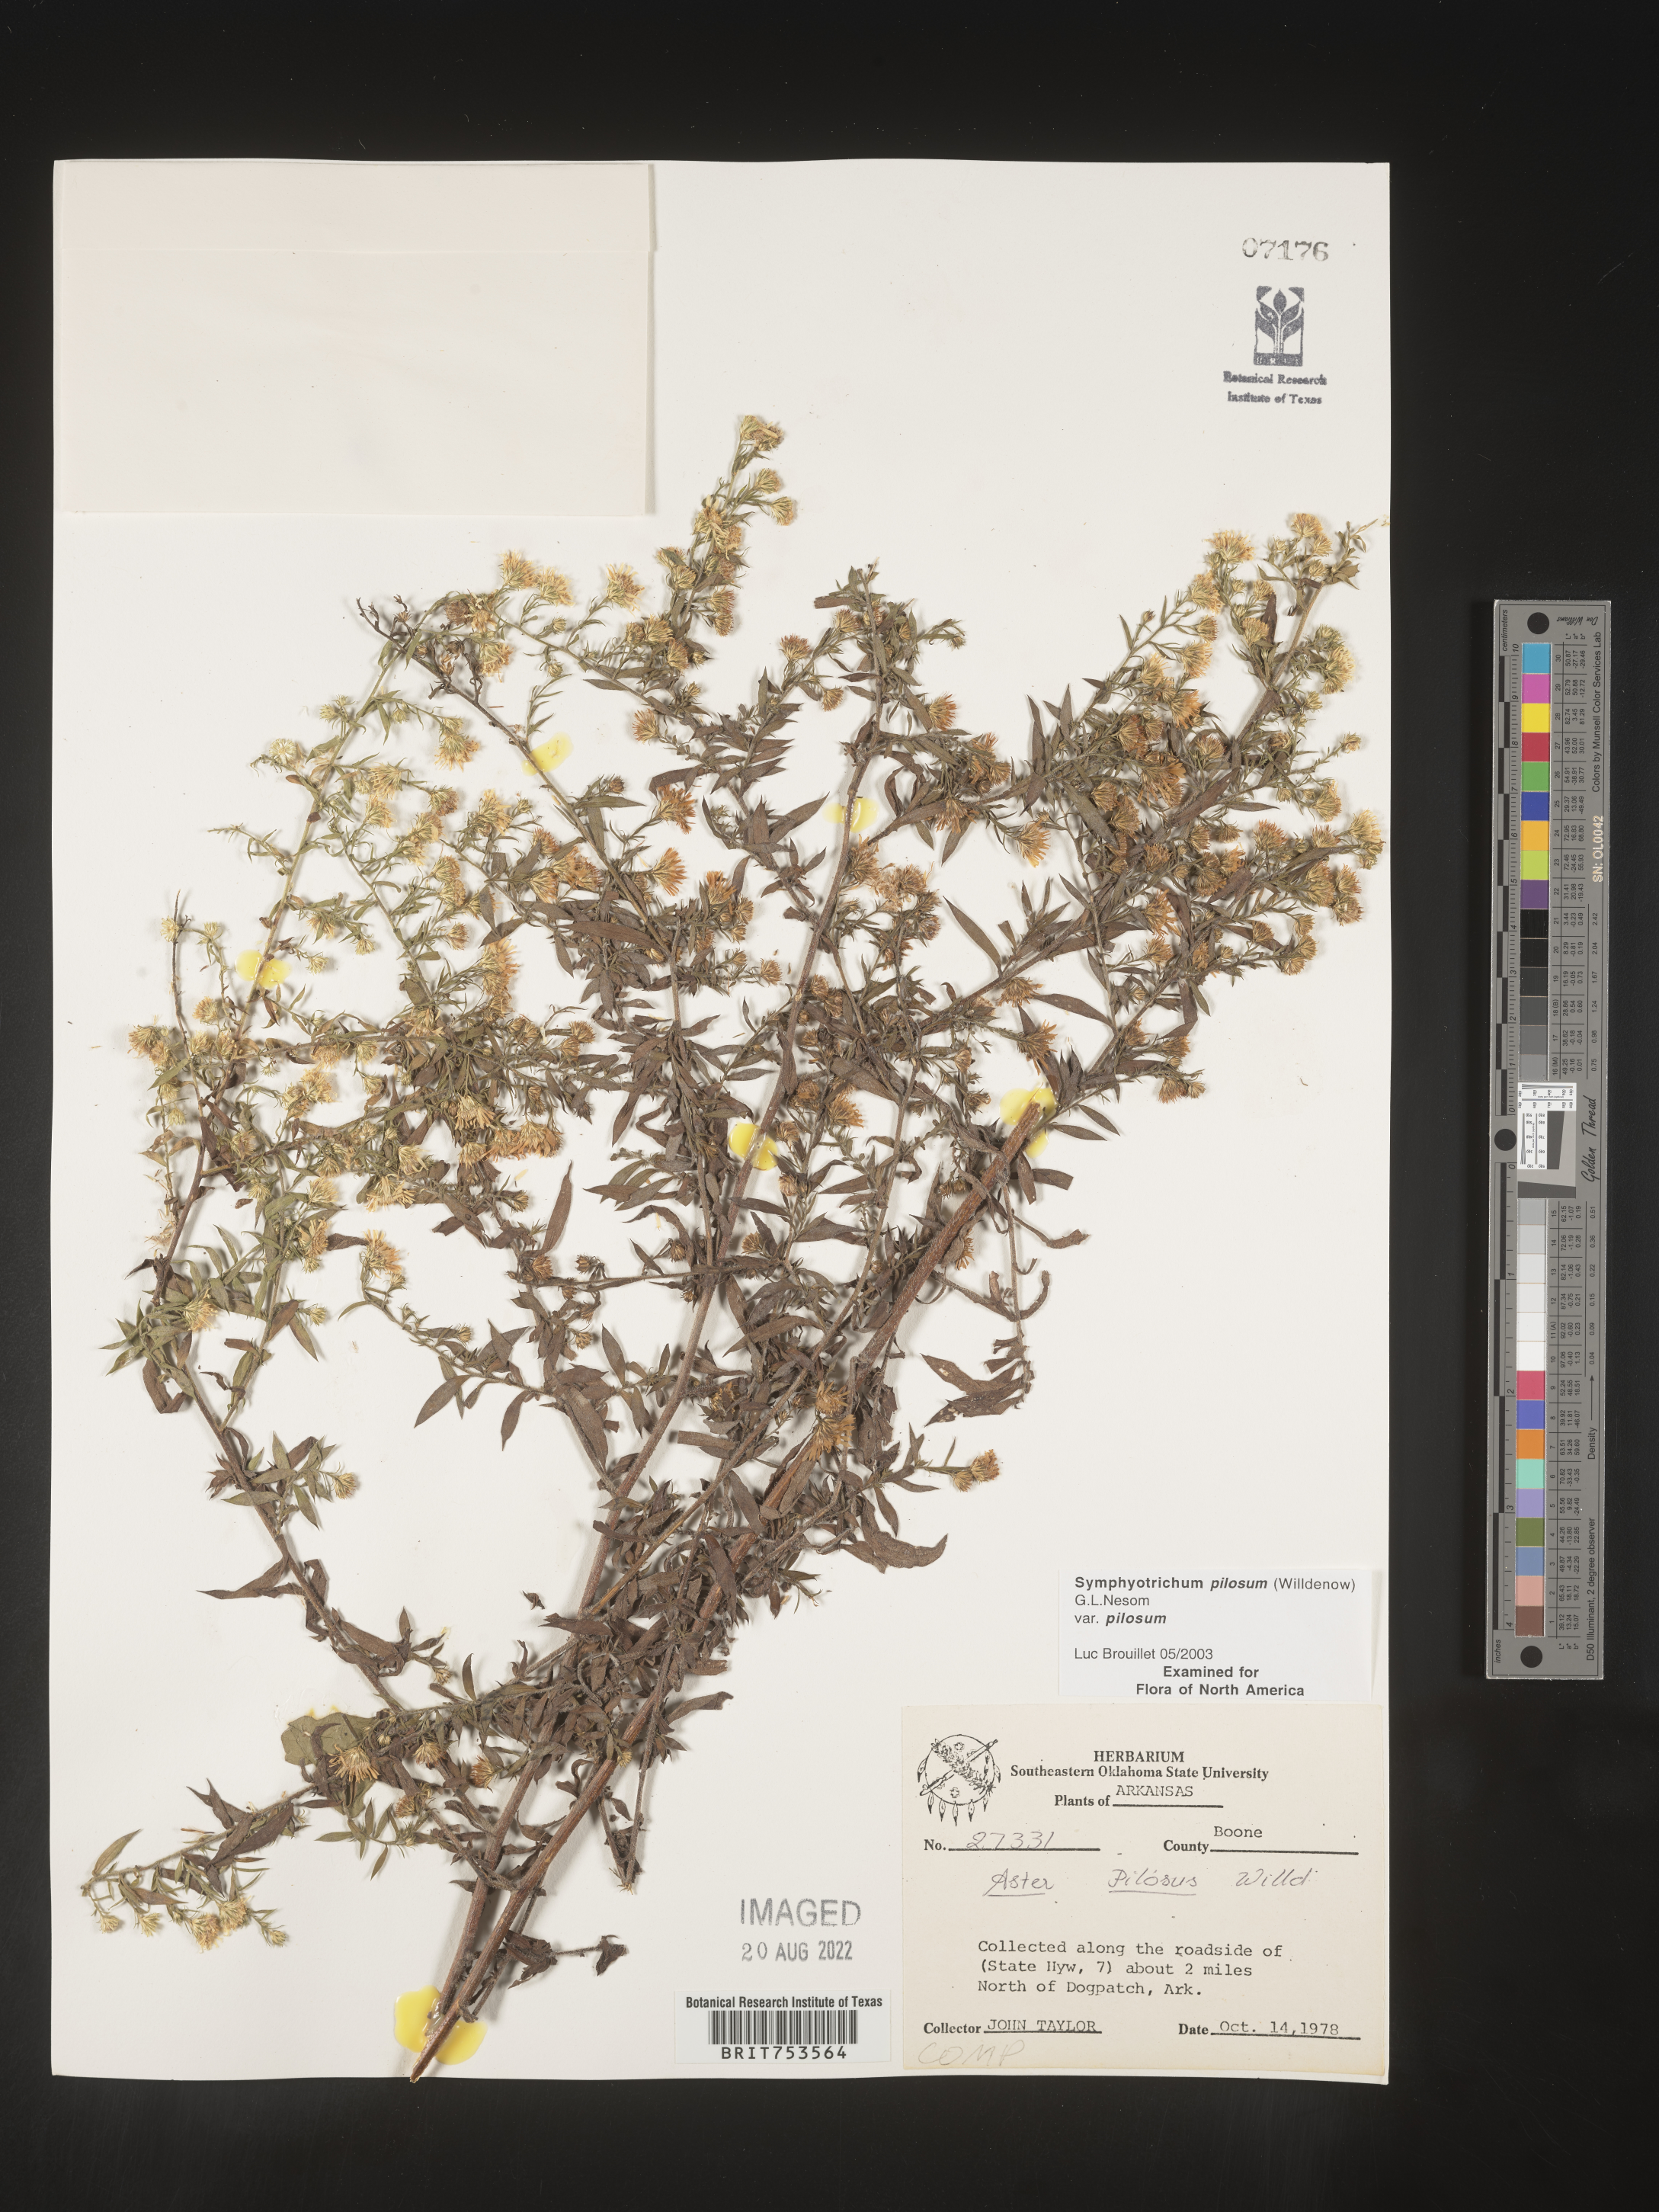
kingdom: Plantae
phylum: Tracheophyta
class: Magnoliopsida
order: Asterales
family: Asteraceae
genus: Symphyotrichum
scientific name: Symphyotrichum pilosum
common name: Awl aster
